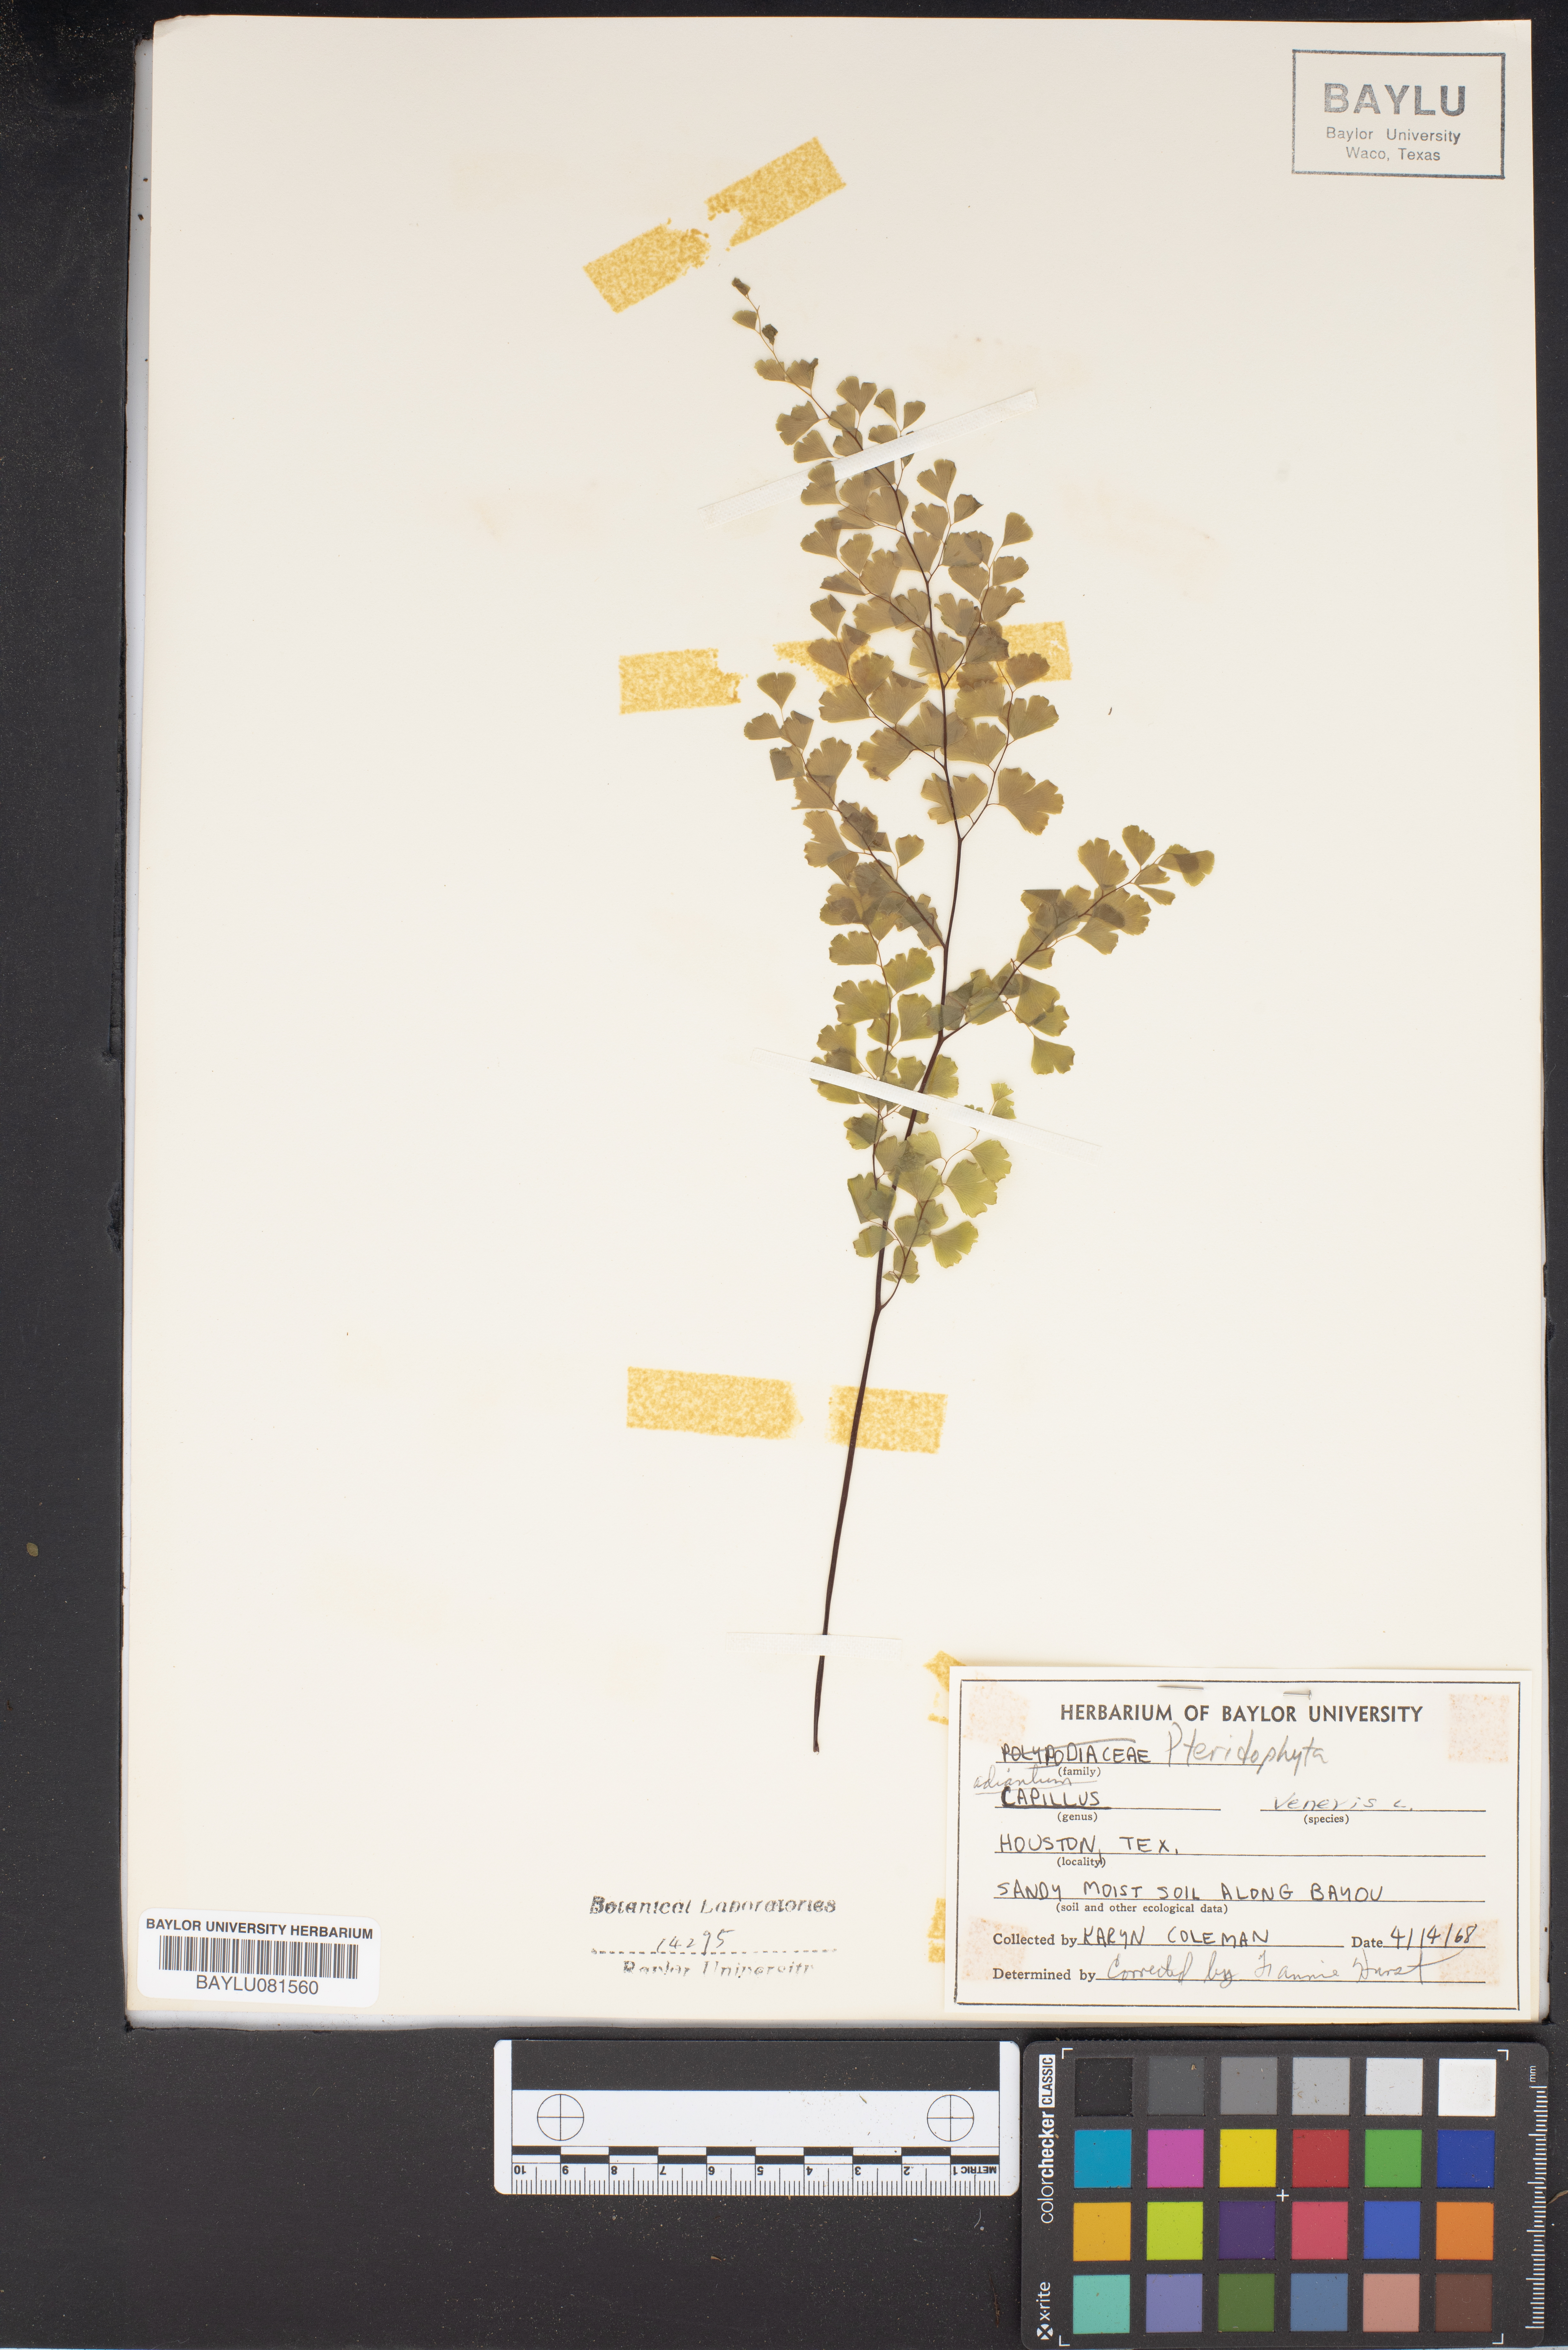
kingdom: Plantae
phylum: Tracheophyta
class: Polypodiopsida
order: Polypodiales
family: Pteridaceae
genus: Adiantum
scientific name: Adiantum capillus-veneris
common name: Maidenhair fern
